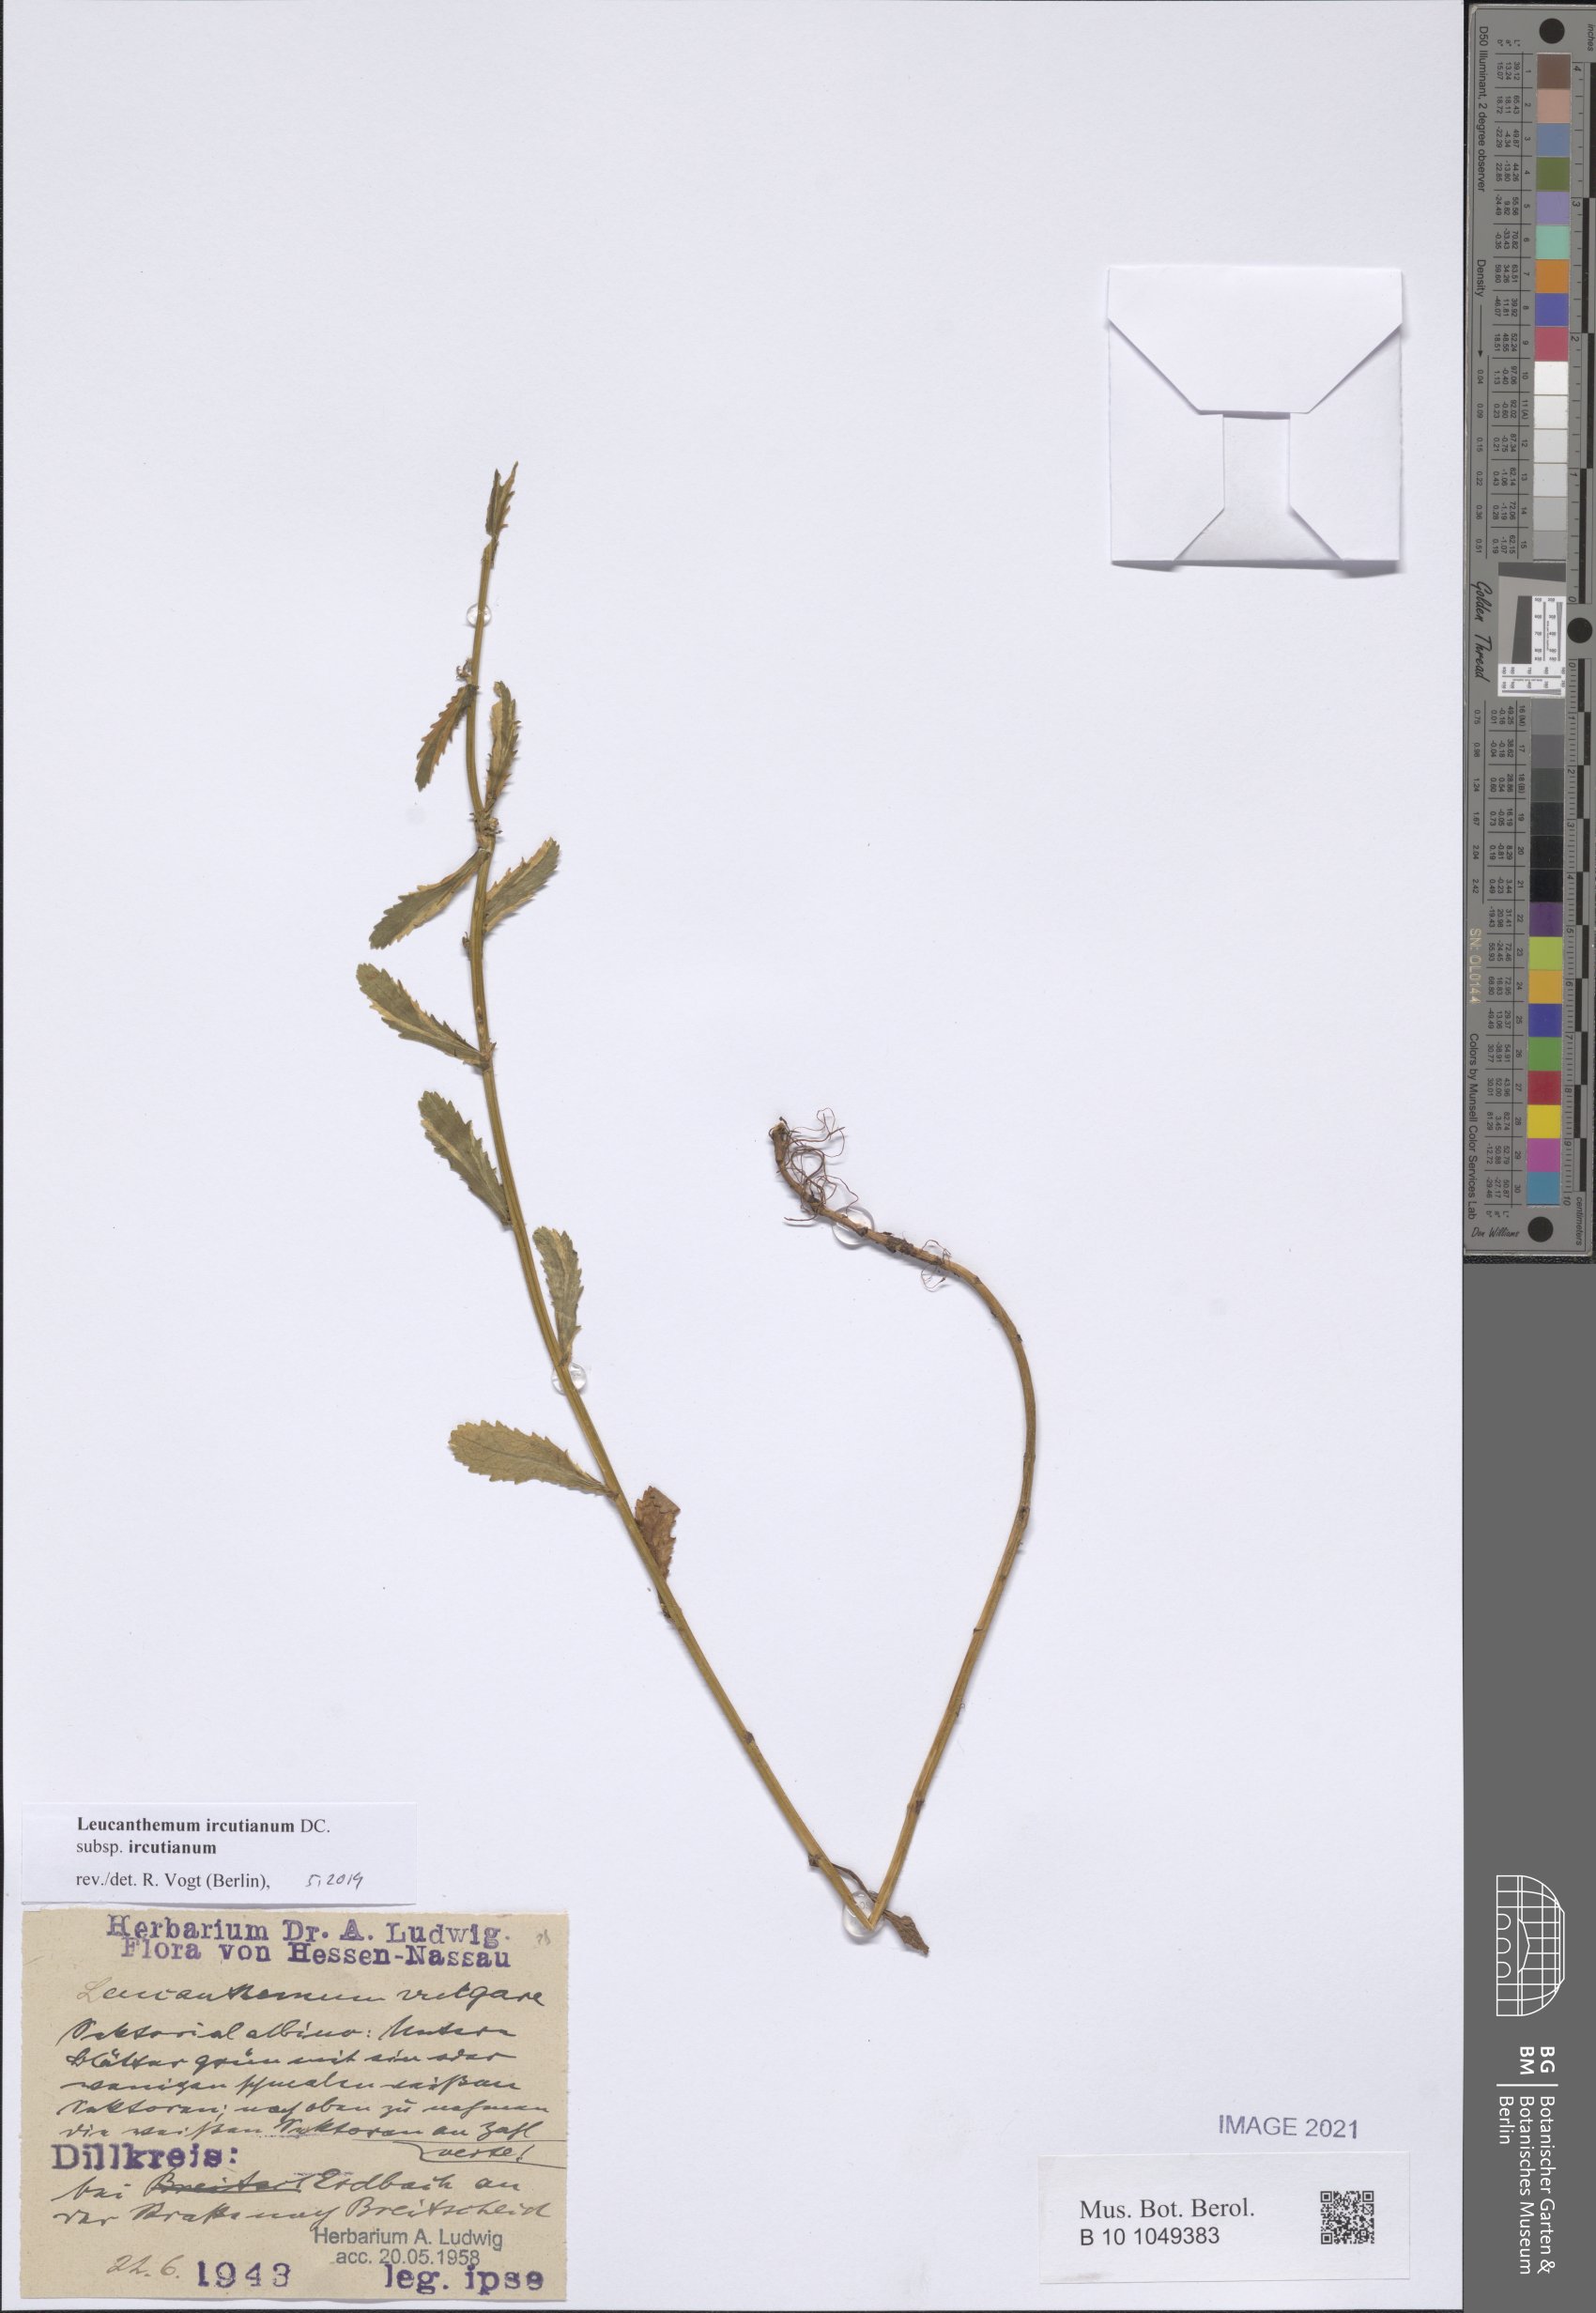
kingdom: Plantae
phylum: Tracheophyta
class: Magnoliopsida
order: Asterales
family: Asteraceae
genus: Leucanthemum
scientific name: Leucanthemum ircutianum
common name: Daisy
